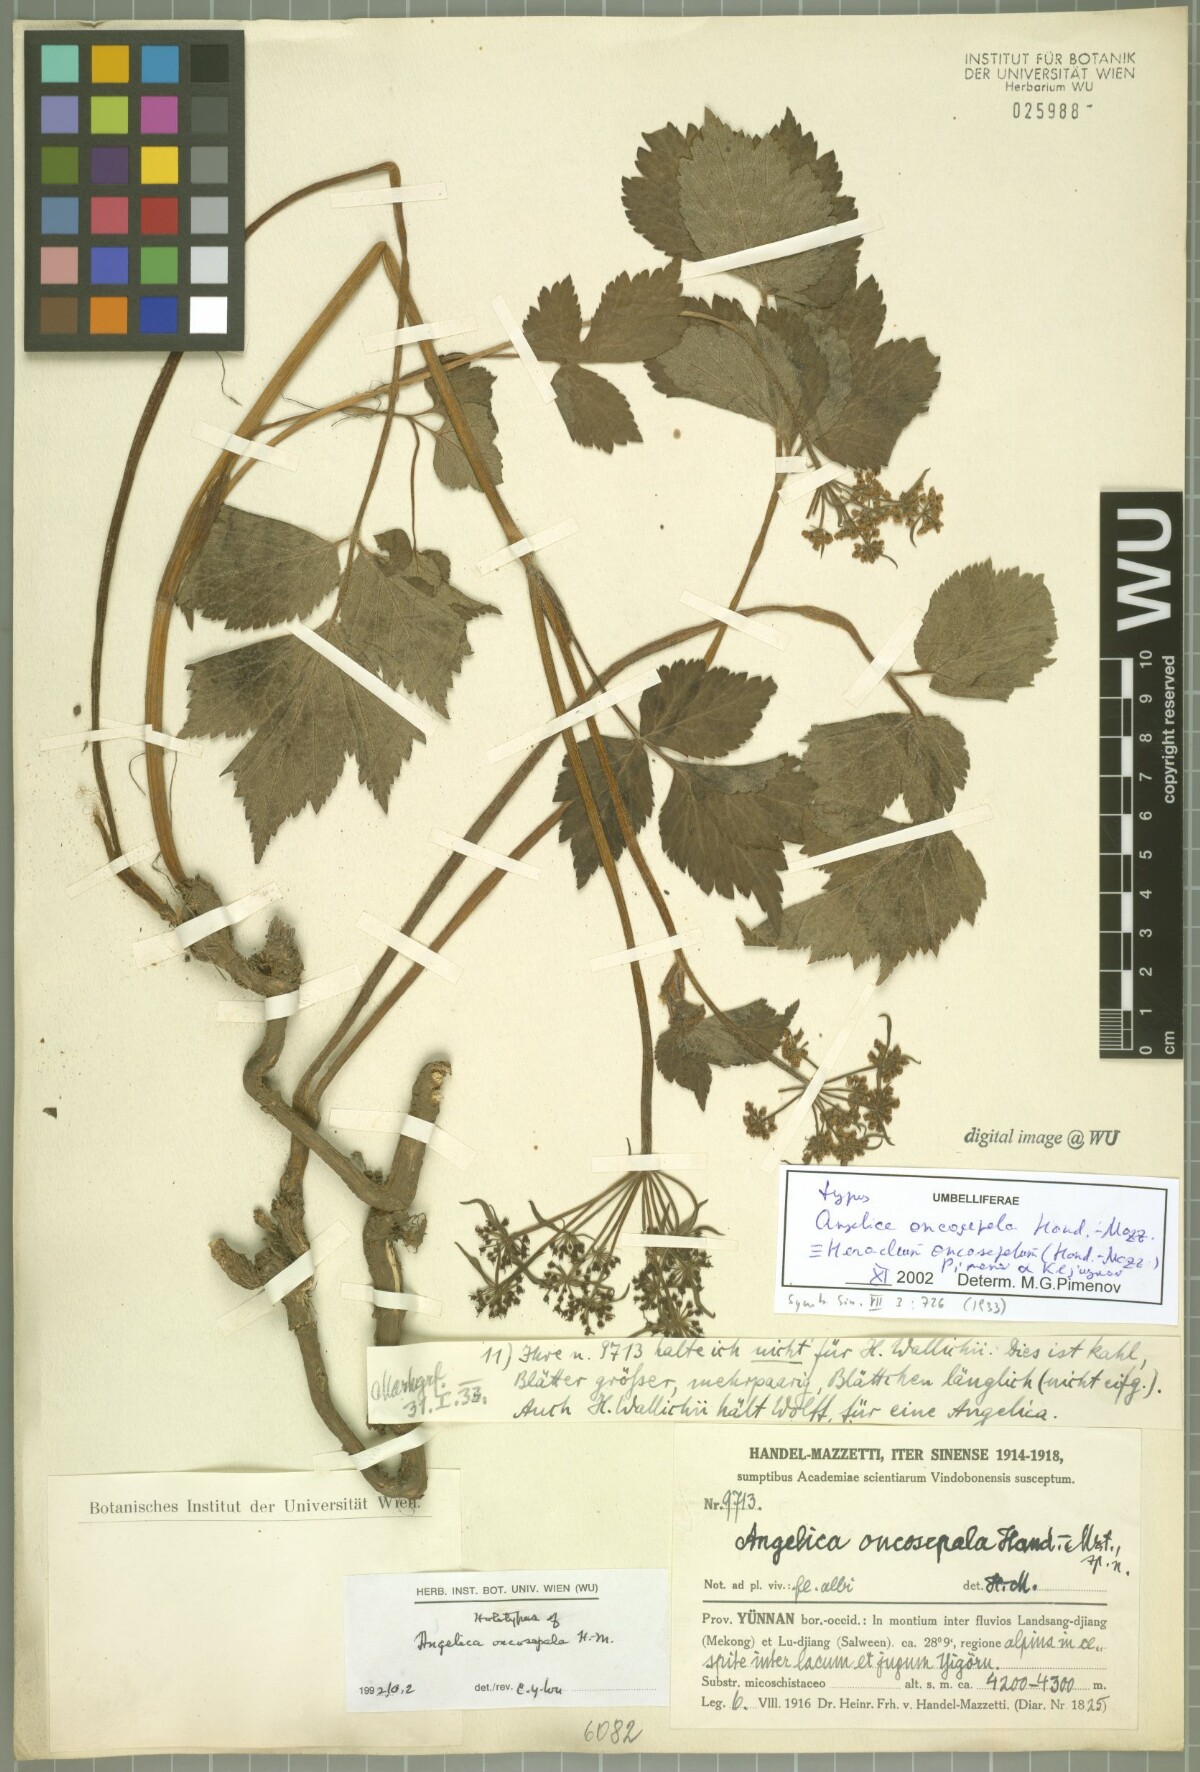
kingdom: Plantae
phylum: Tracheophyta
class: Magnoliopsida
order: Apiales
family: Apiaceae
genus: Heracleum
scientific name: Heracleum oncosepalum
